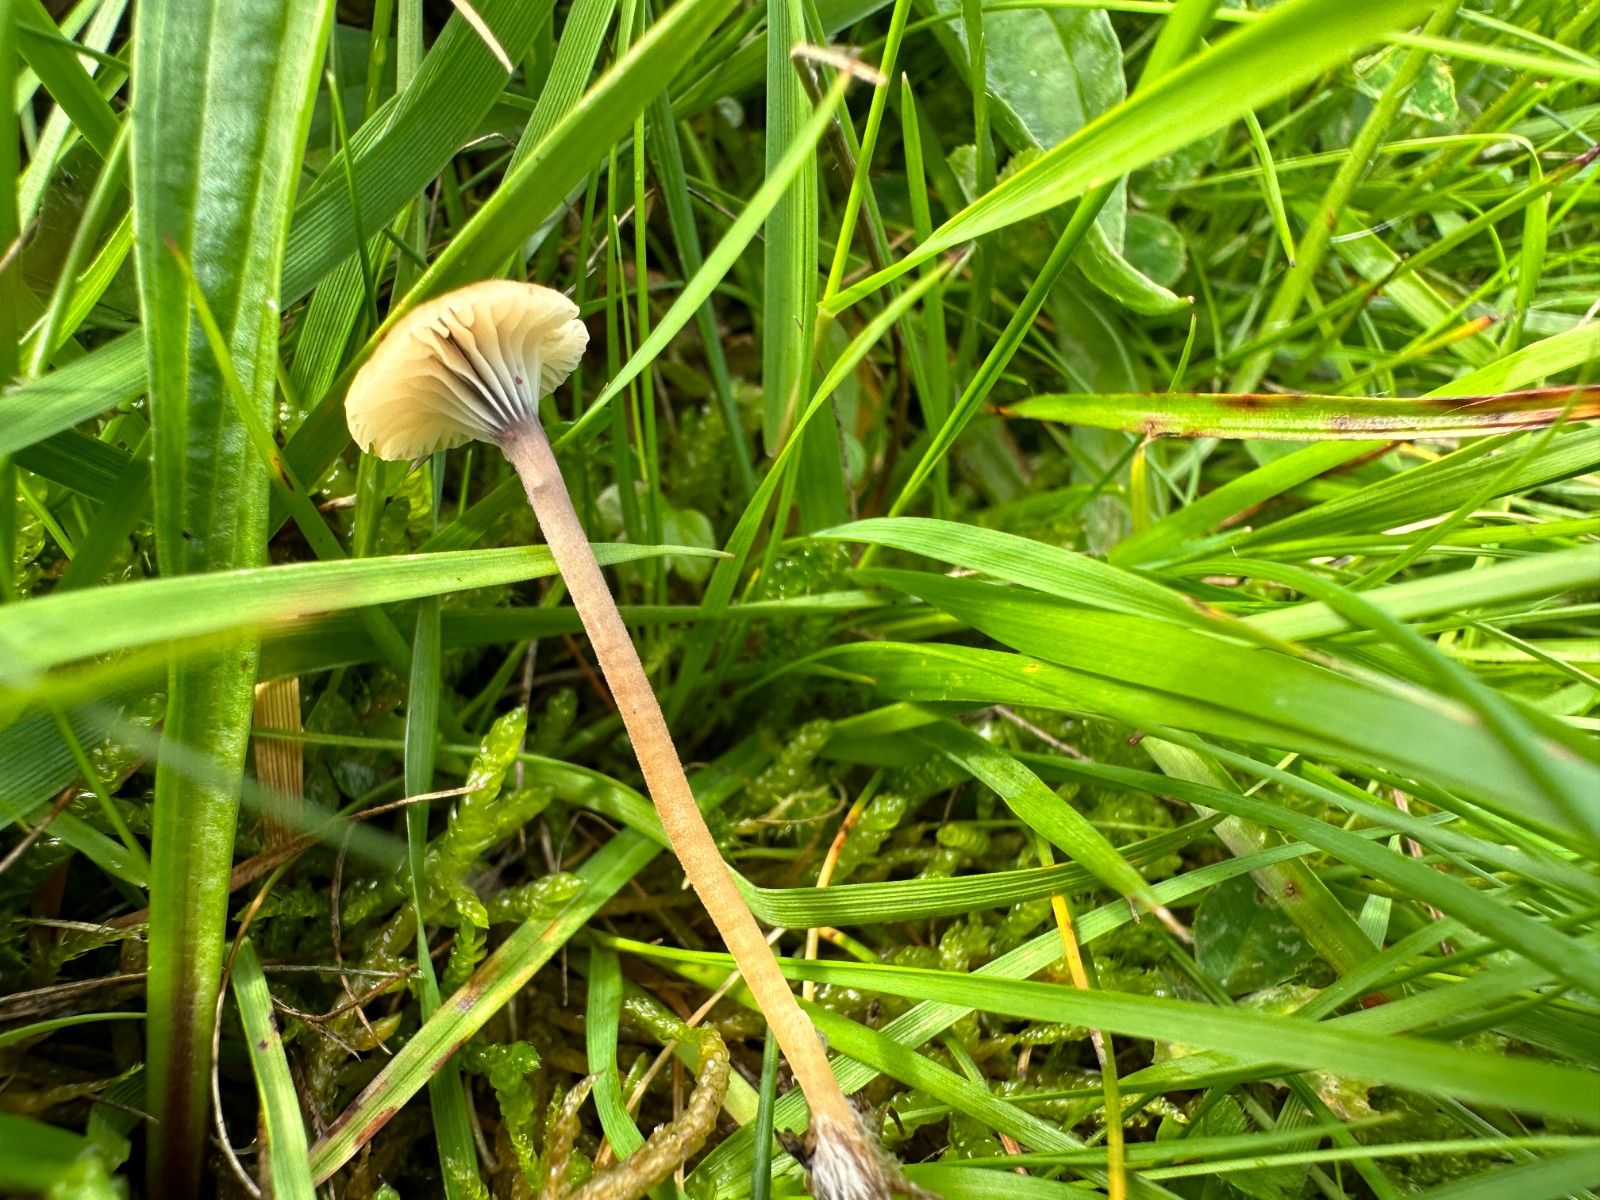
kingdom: Fungi
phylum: Basidiomycota
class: Agaricomycetes
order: Hymenochaetales
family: Rickenellaceae
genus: Rickenella
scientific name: Rickenella swartzii
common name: finstokket mosnavlehat
